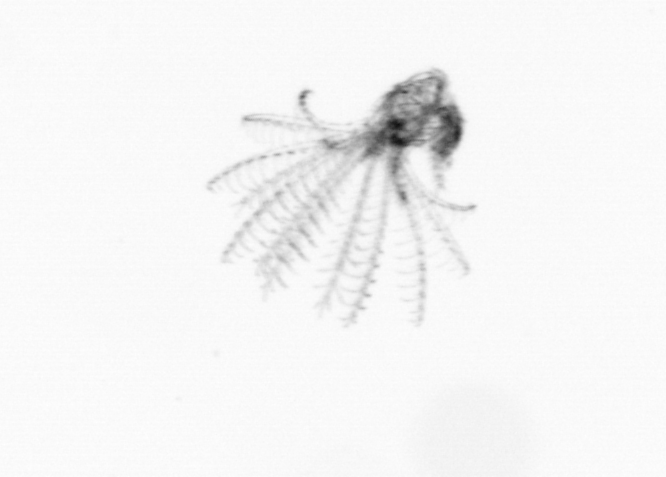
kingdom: Animalia
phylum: Arthropoda
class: Maxillopoda
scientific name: Maxillopoda
